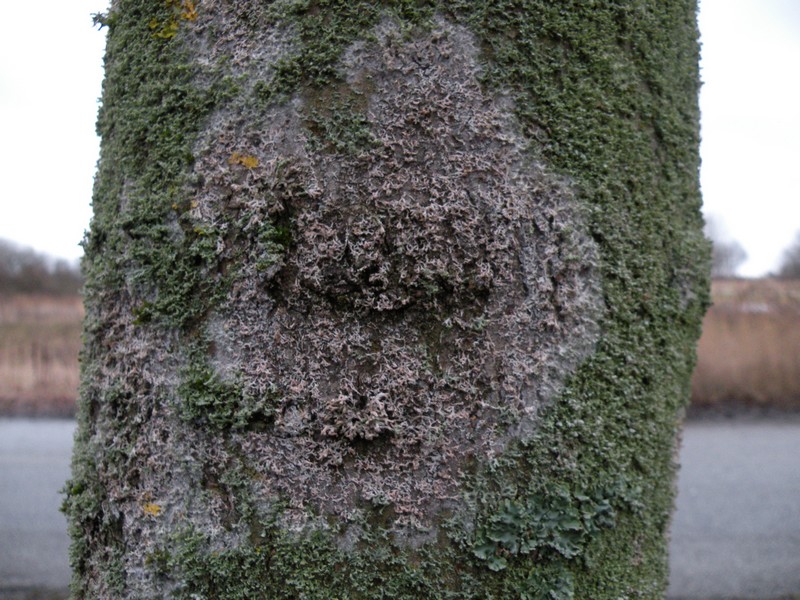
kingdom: Fungi
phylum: Basidiomycota
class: Agaricomycetes
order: Atheliales
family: Atheliaceae
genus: Athelia
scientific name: Athelia arachnoidea
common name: randet barkhinde
